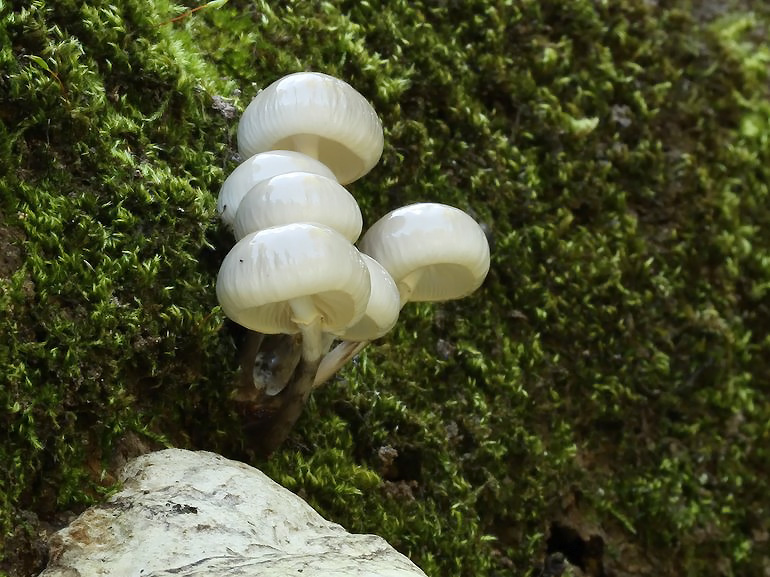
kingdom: Fungi
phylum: Basidiomycota
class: Agaricomycetes
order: Agaricales
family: Physalacriaceae
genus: Mucidula
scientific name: Mucidula mucida
